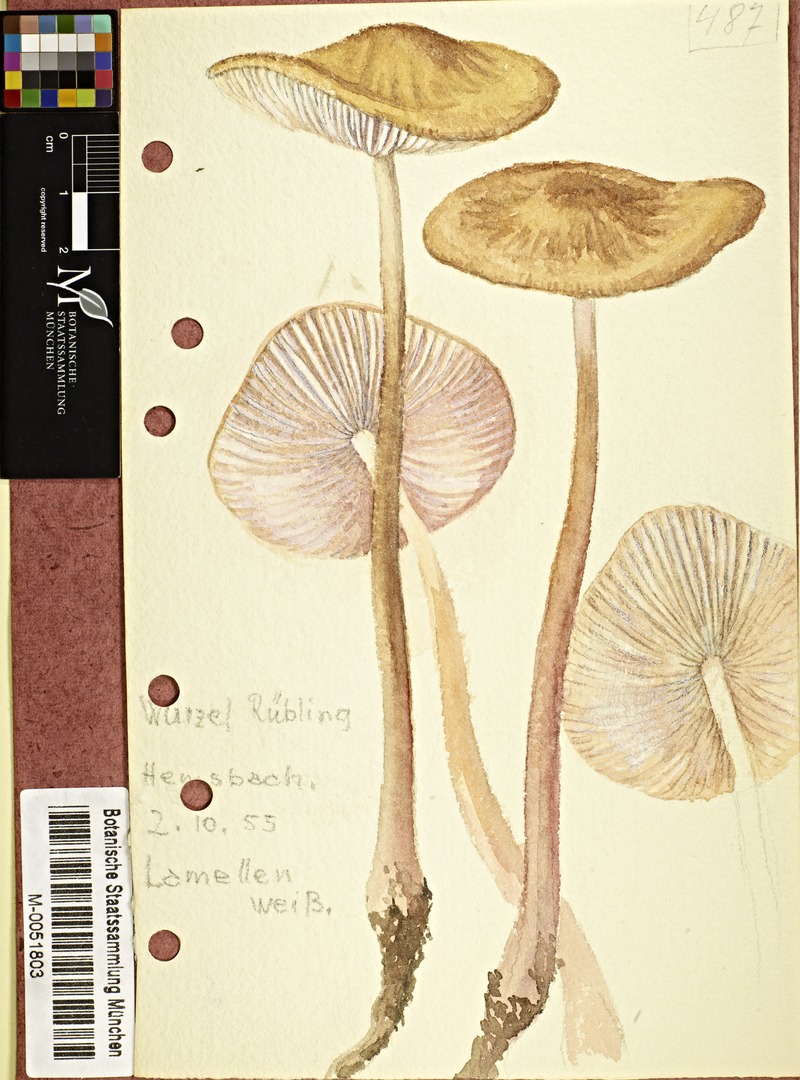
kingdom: Fungi
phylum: Basidiomycota
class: Agaricomycetes
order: Agaricales
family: Physalacriaceae
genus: Hymenopellis
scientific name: Hymenopellis radicata
